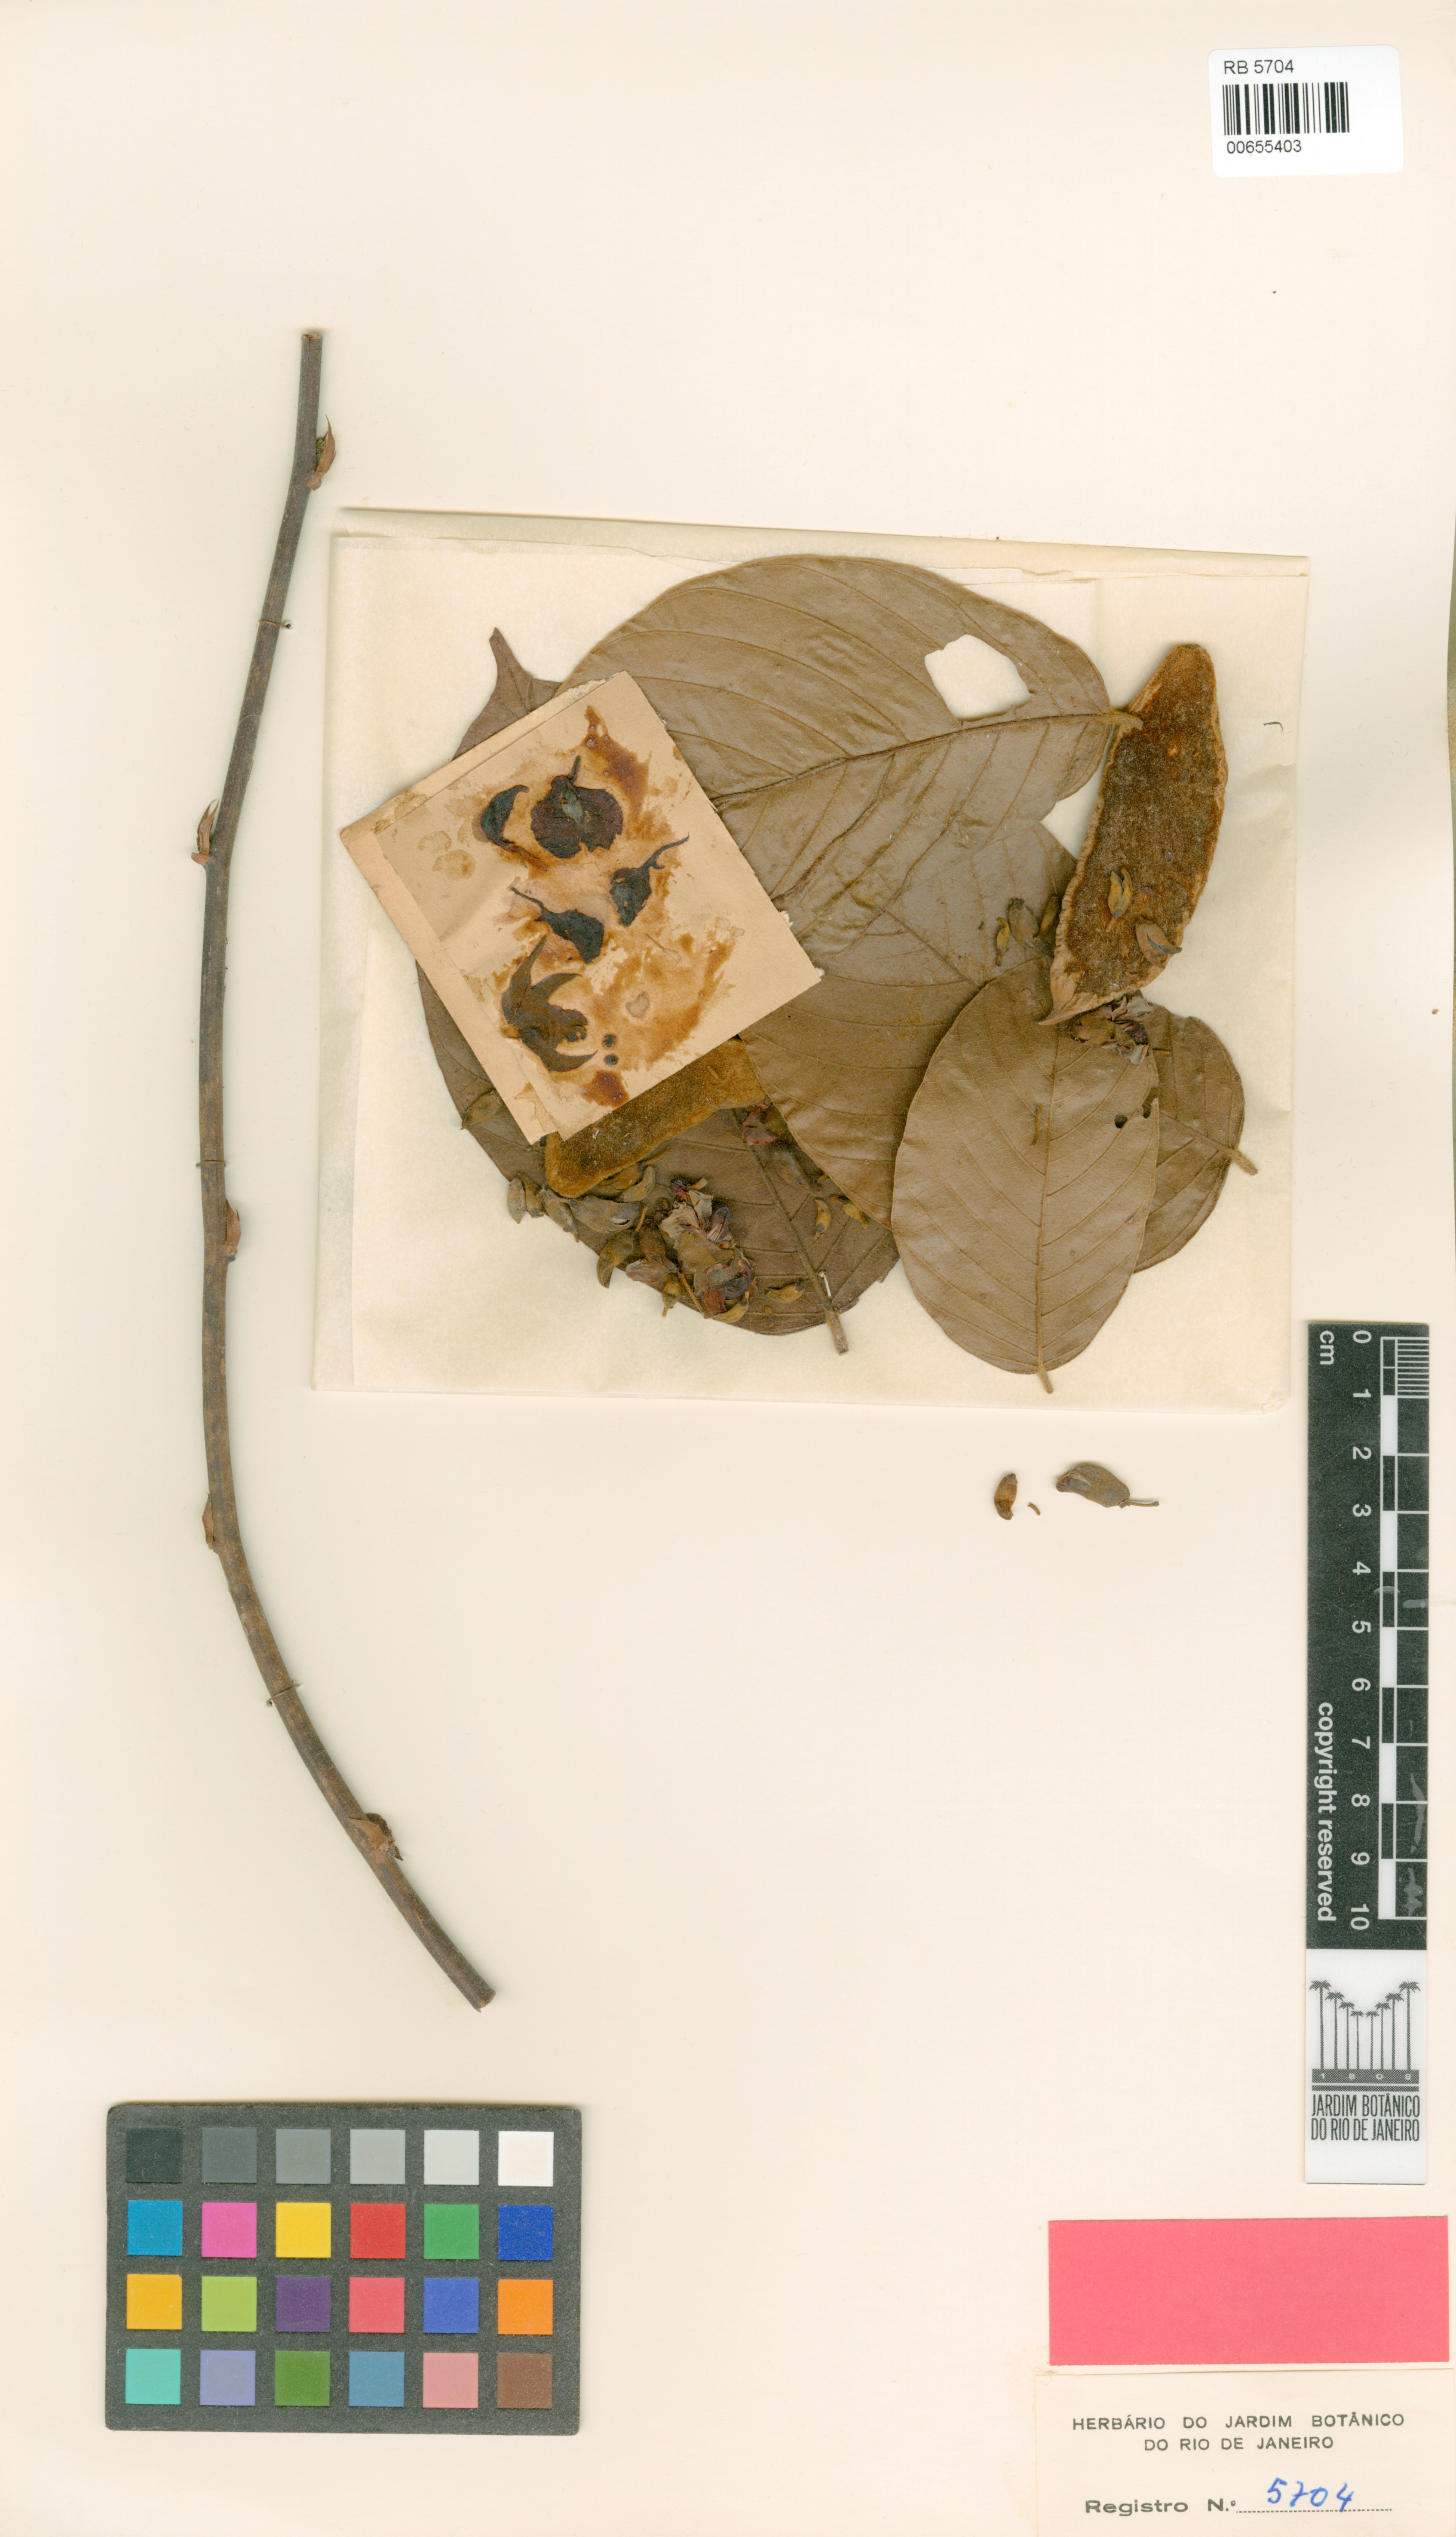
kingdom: Plantae
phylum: Tracheophyta
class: Magnoliopsida
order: Fabales
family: Fabaceae
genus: Macropsychanthus
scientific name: Macropsychanthus malacocarpus
